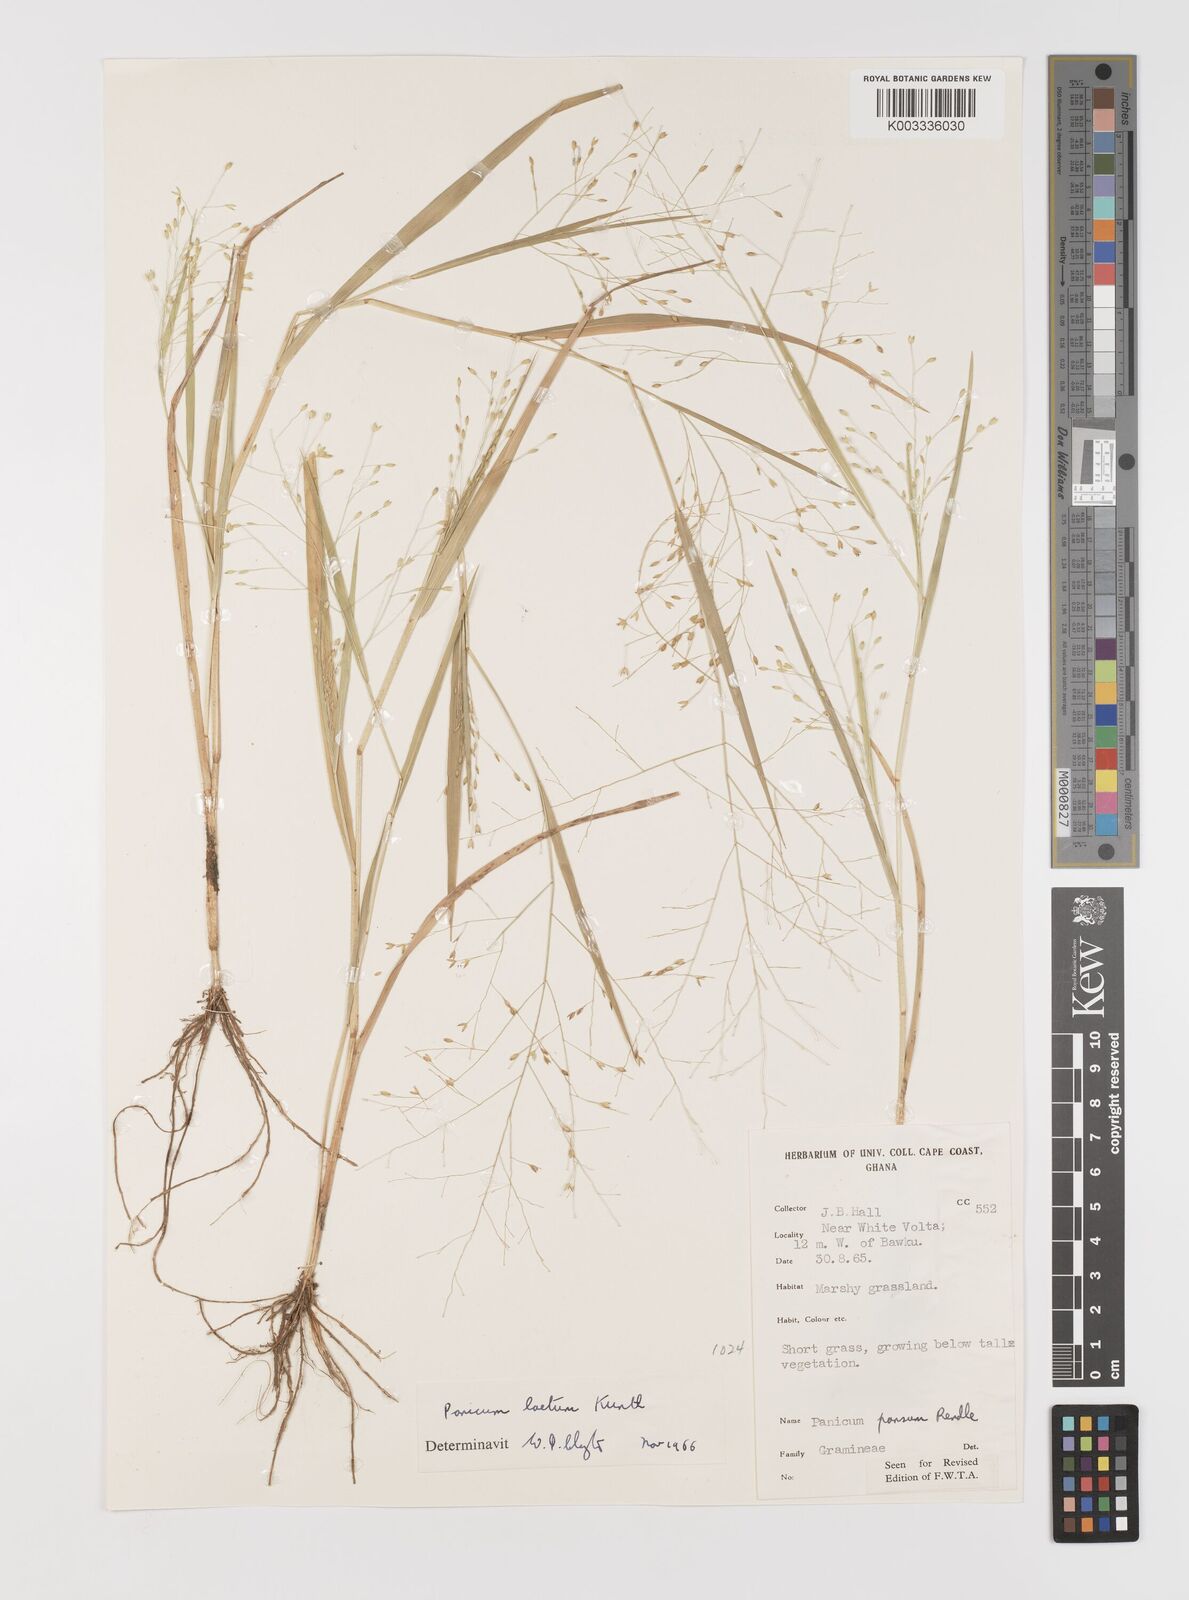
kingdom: Plantae
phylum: Tracheophyta
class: Liliopsida
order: Poales
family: Poaceae
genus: Panicum
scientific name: Panicum laetum
